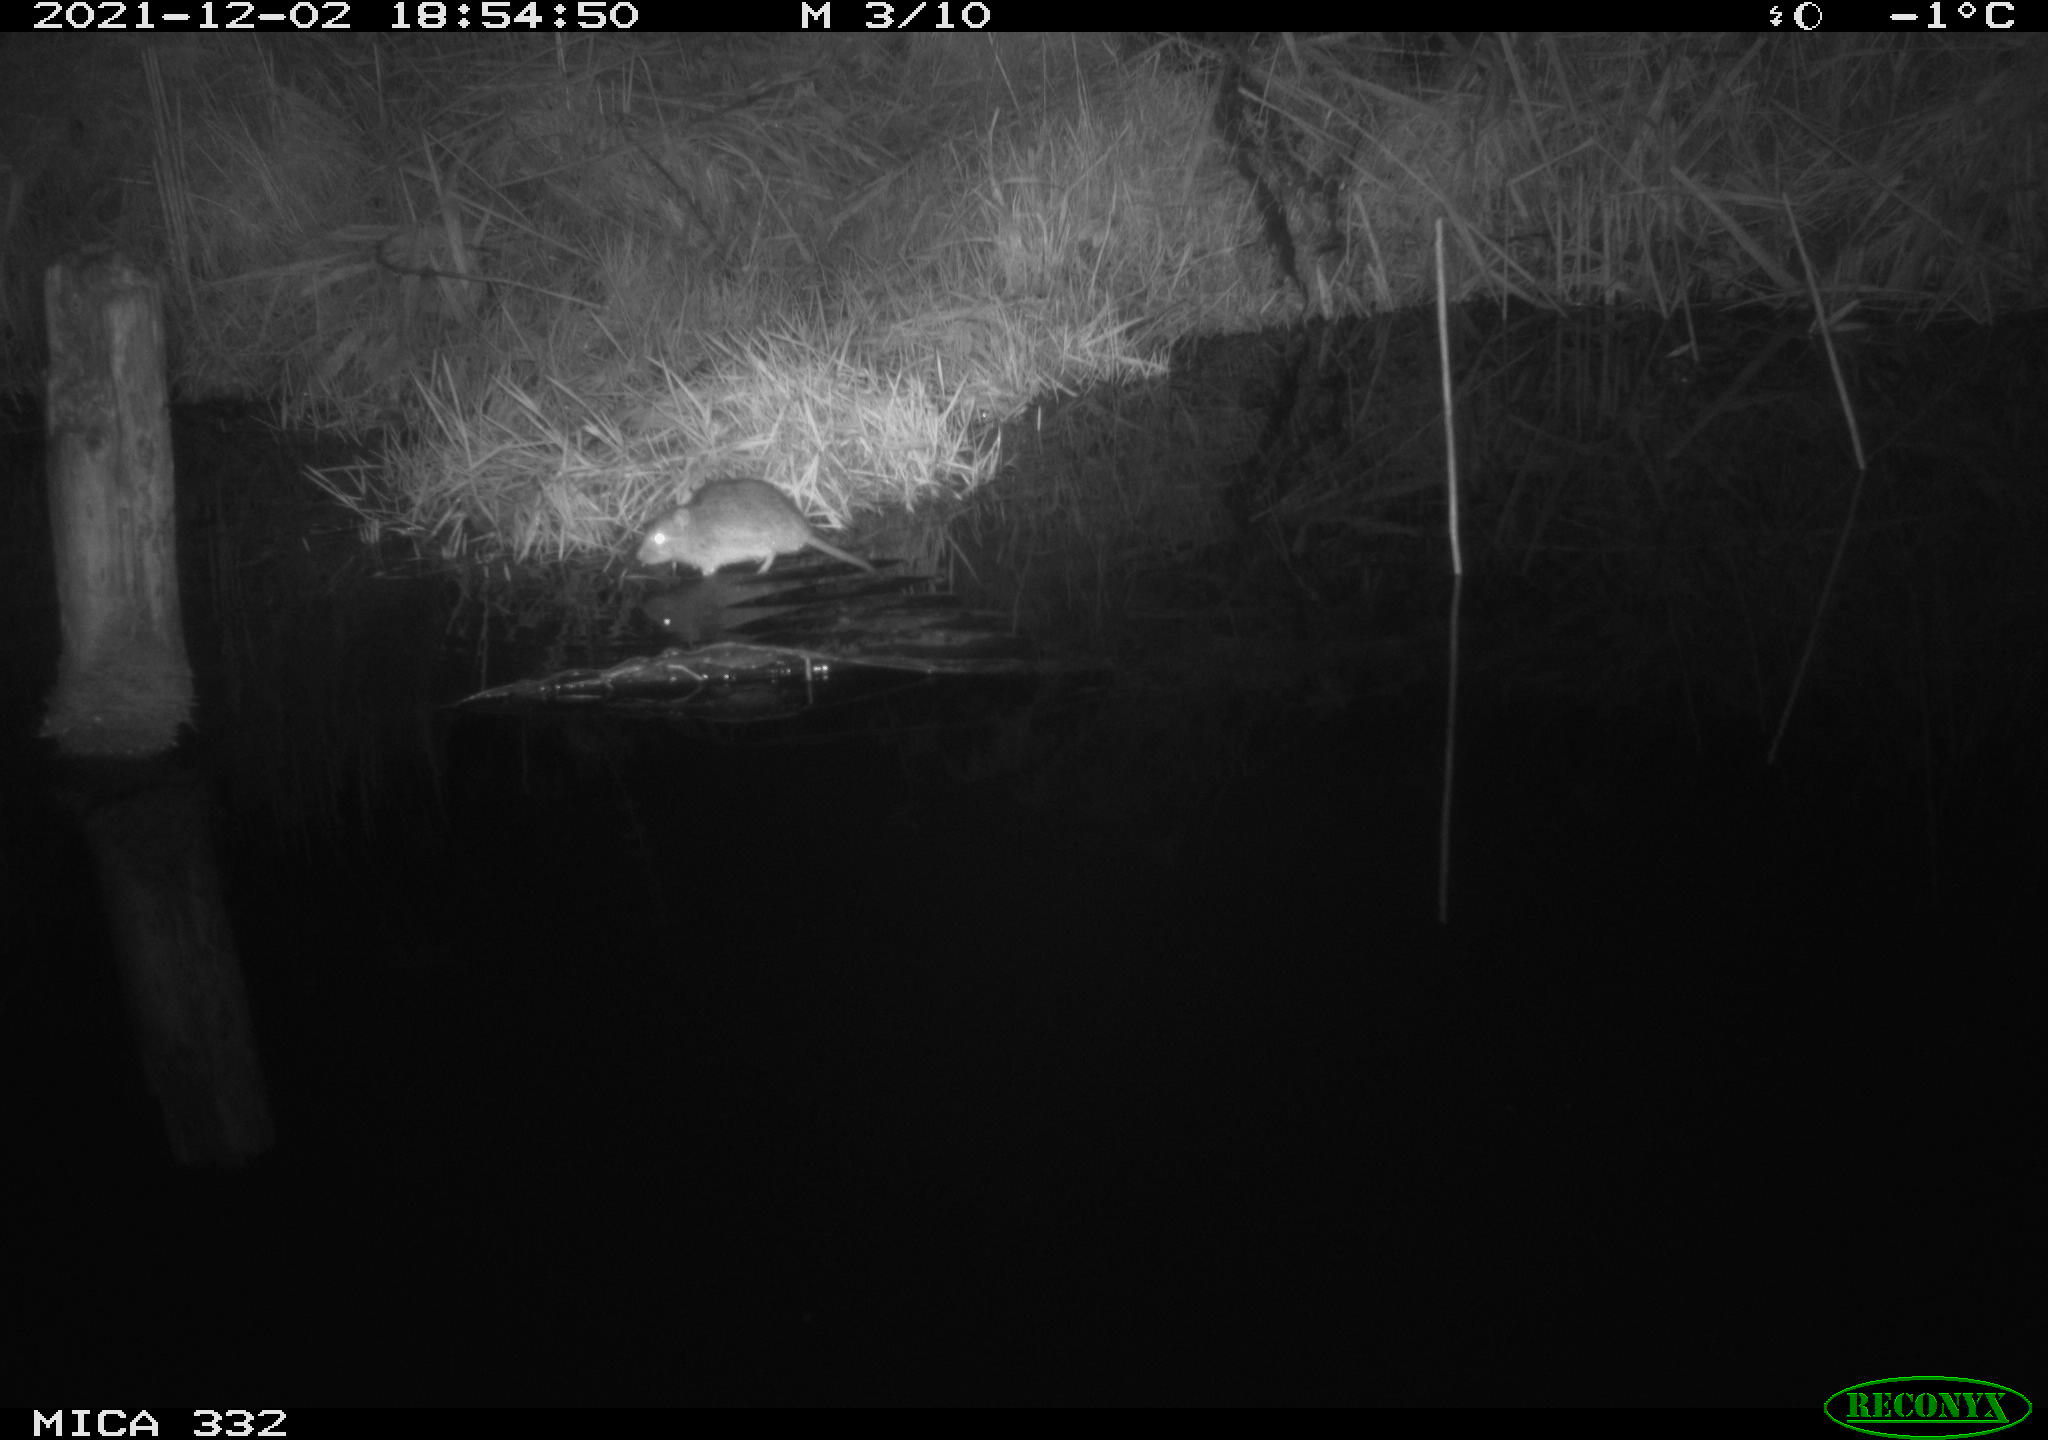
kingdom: Animalia
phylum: Chordata
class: Mammalia
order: Rodentia
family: Muridae
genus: Rattus
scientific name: Rattus norvegicus
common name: Brown rat
